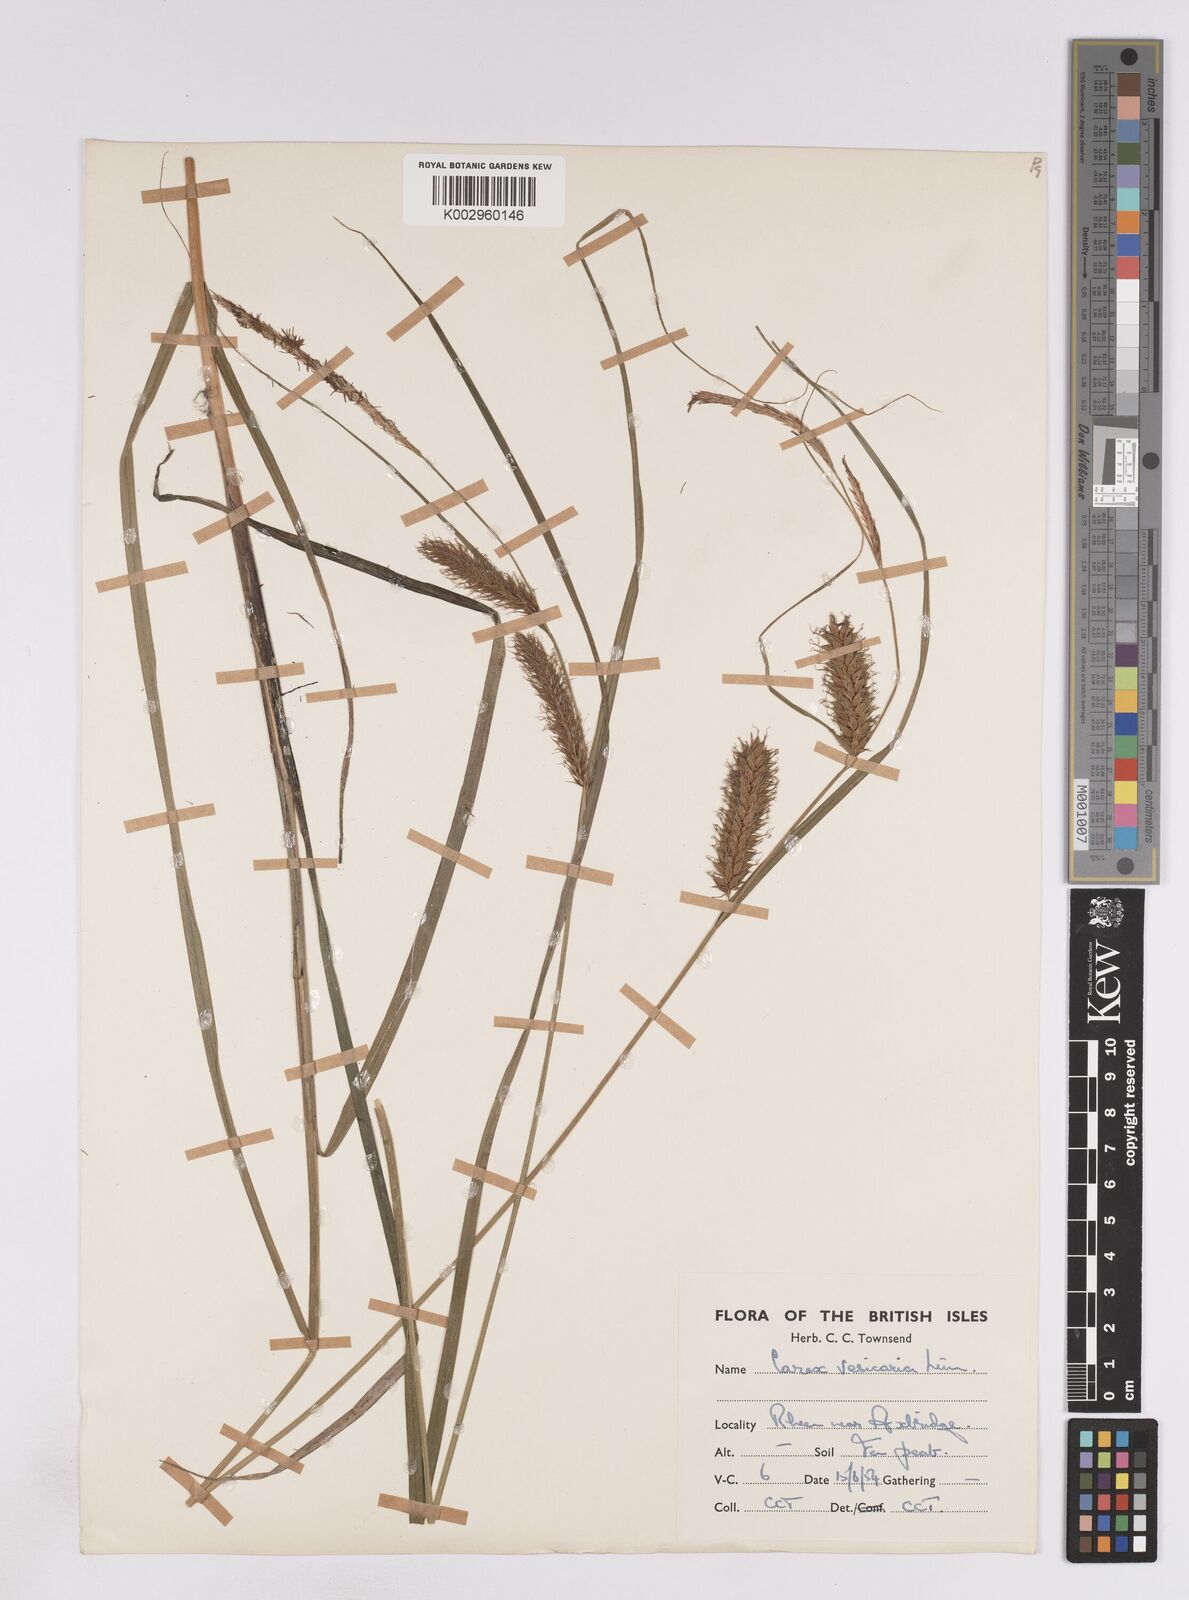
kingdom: Plantae
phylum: Tracheophyta
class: Liliopsida
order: Poales
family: Cyperaceae
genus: Carex
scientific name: Carex vesicaria
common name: Bladder-sedge
